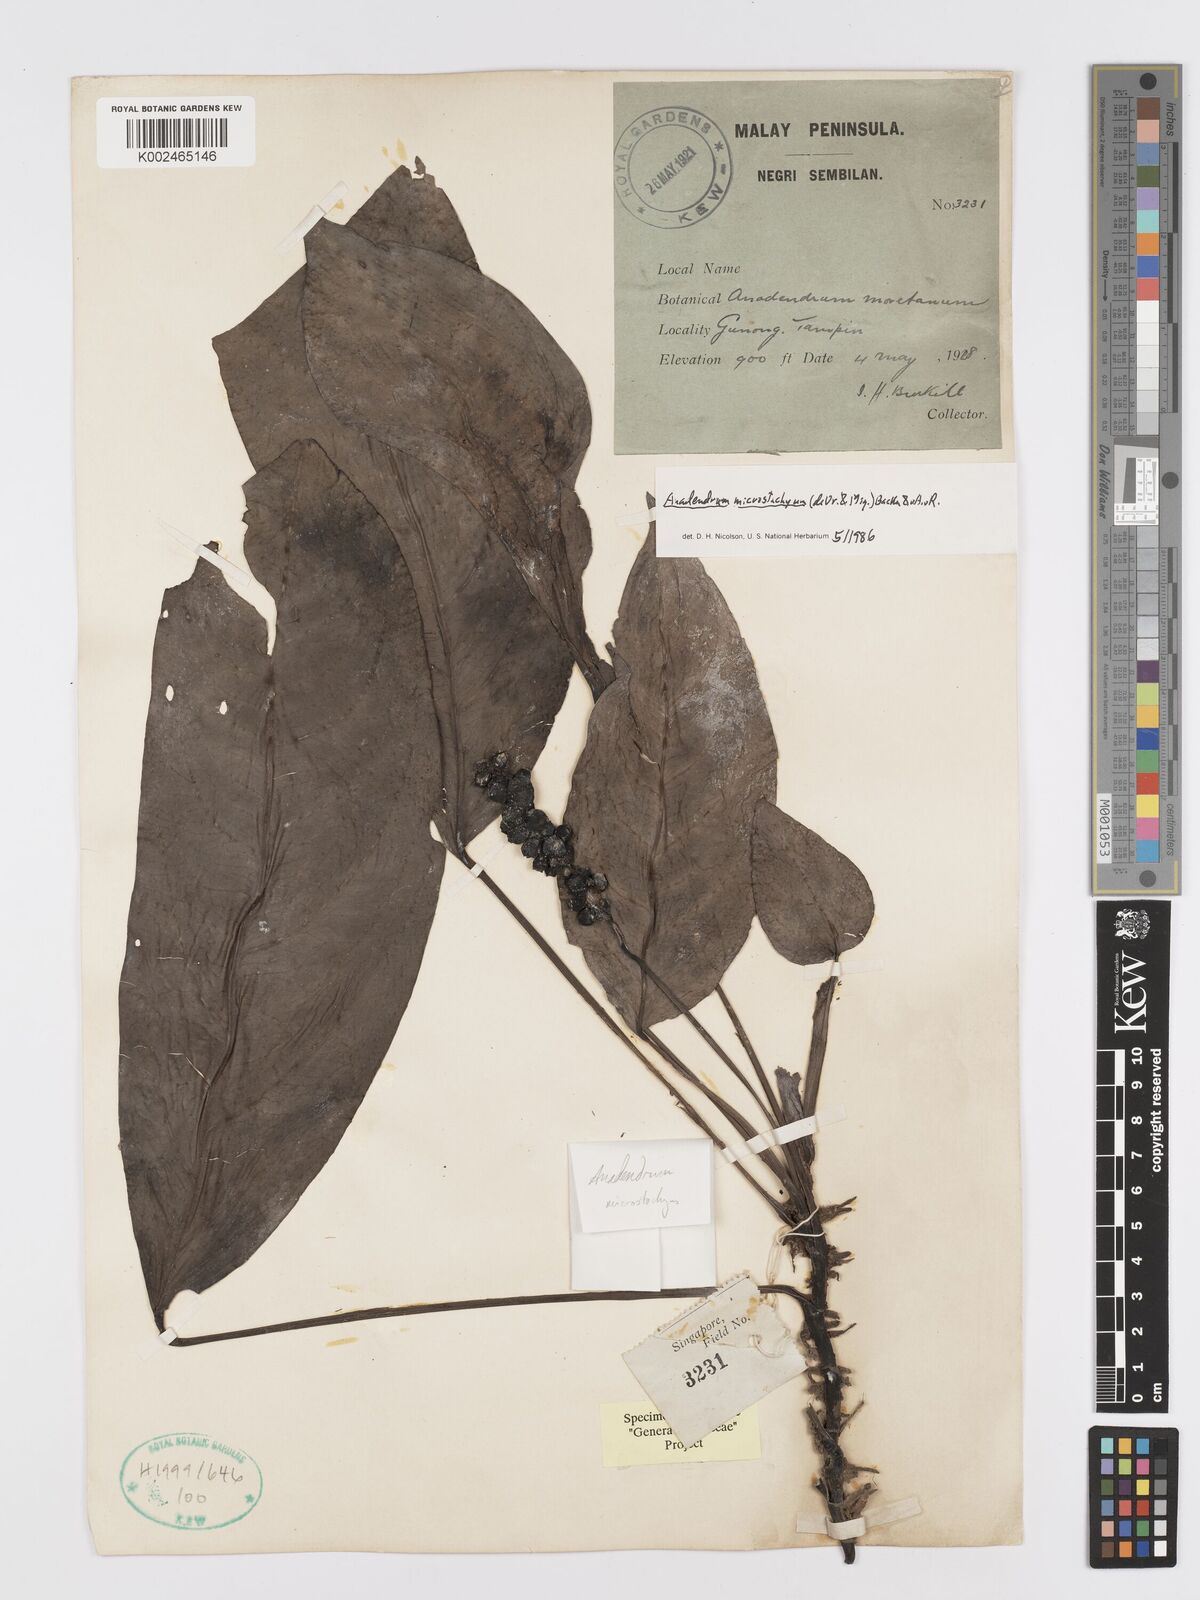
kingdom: Plantae
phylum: Tracheophyta
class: Liliopsida
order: Alismatales
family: Araceae
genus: Anadendrum
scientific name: Anadendrum microstachyum
